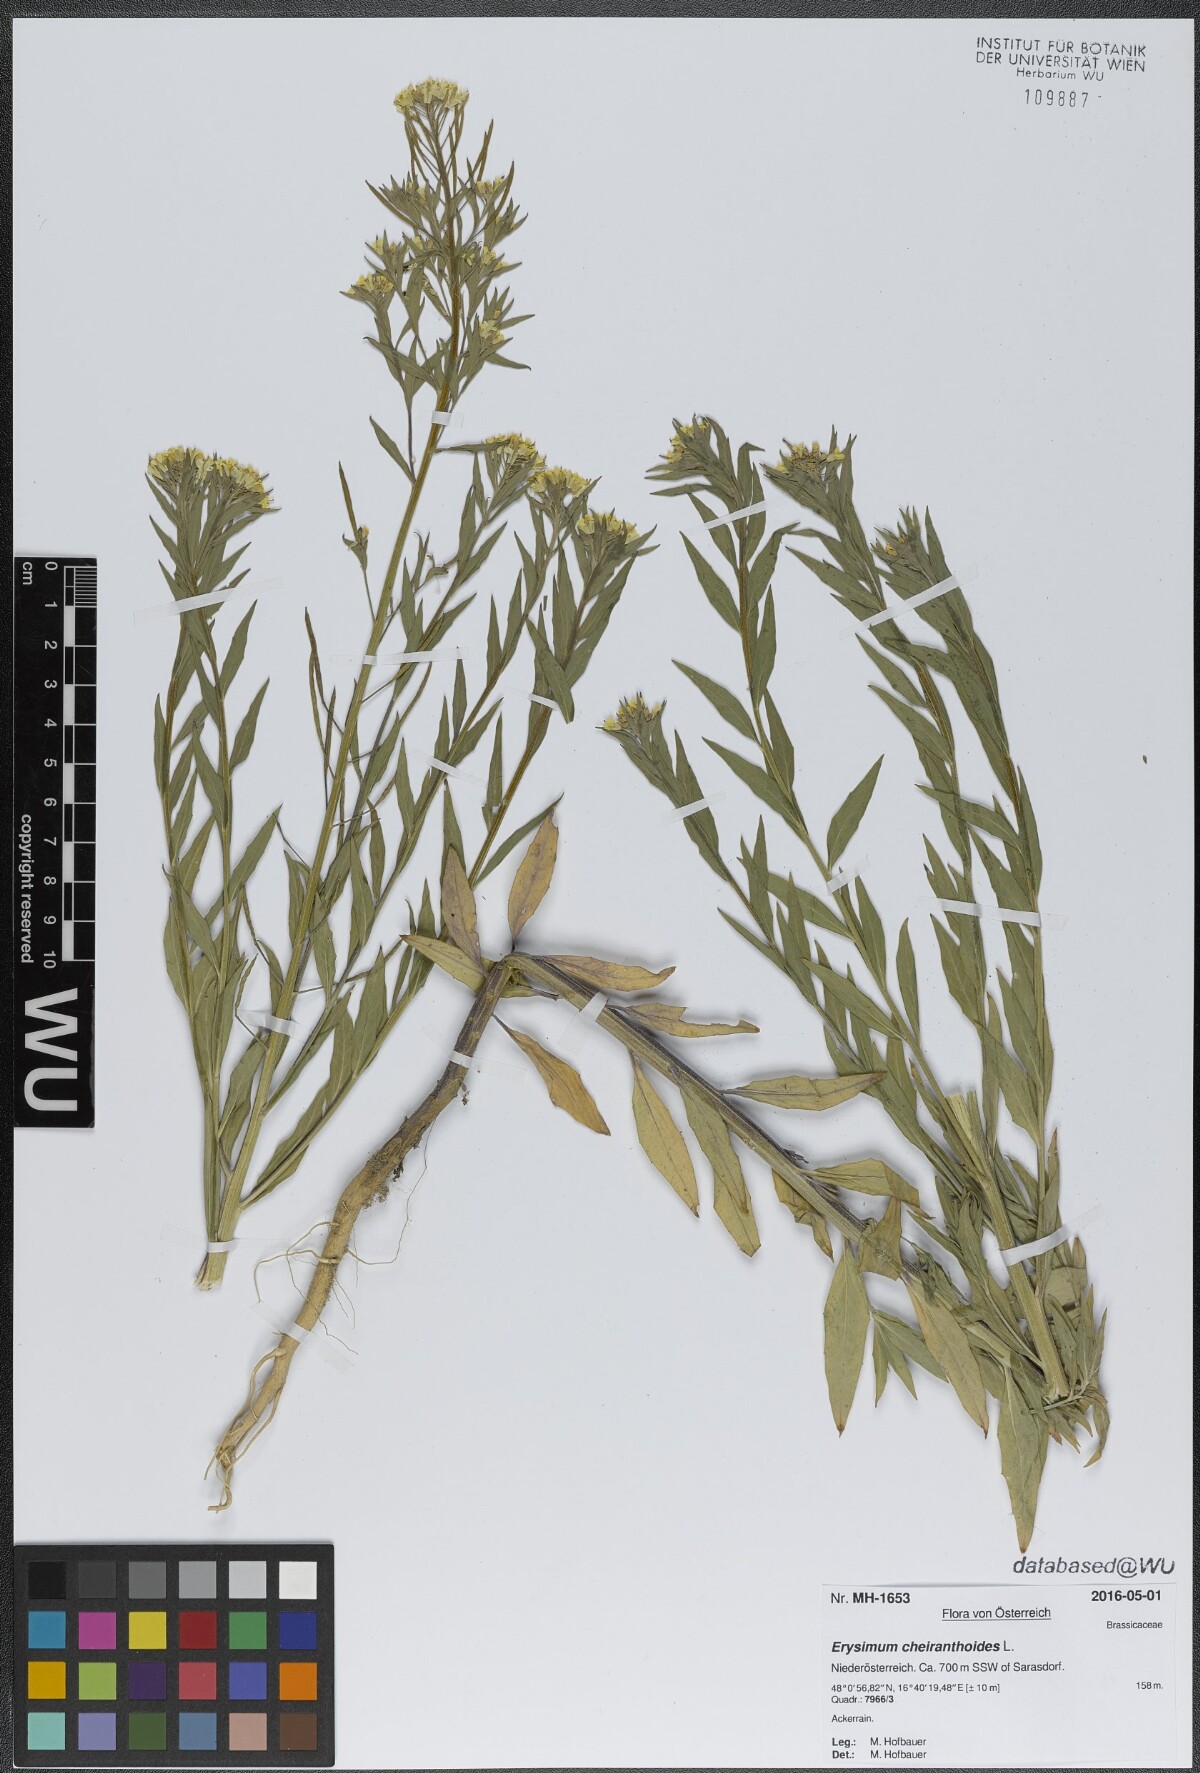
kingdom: Plantae
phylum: Tracheophyta
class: Magnoliopsida
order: Brassicales
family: Brassicaceae
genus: Erysimum
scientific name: Erysimum cheiranthoides
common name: Treacle mustard
